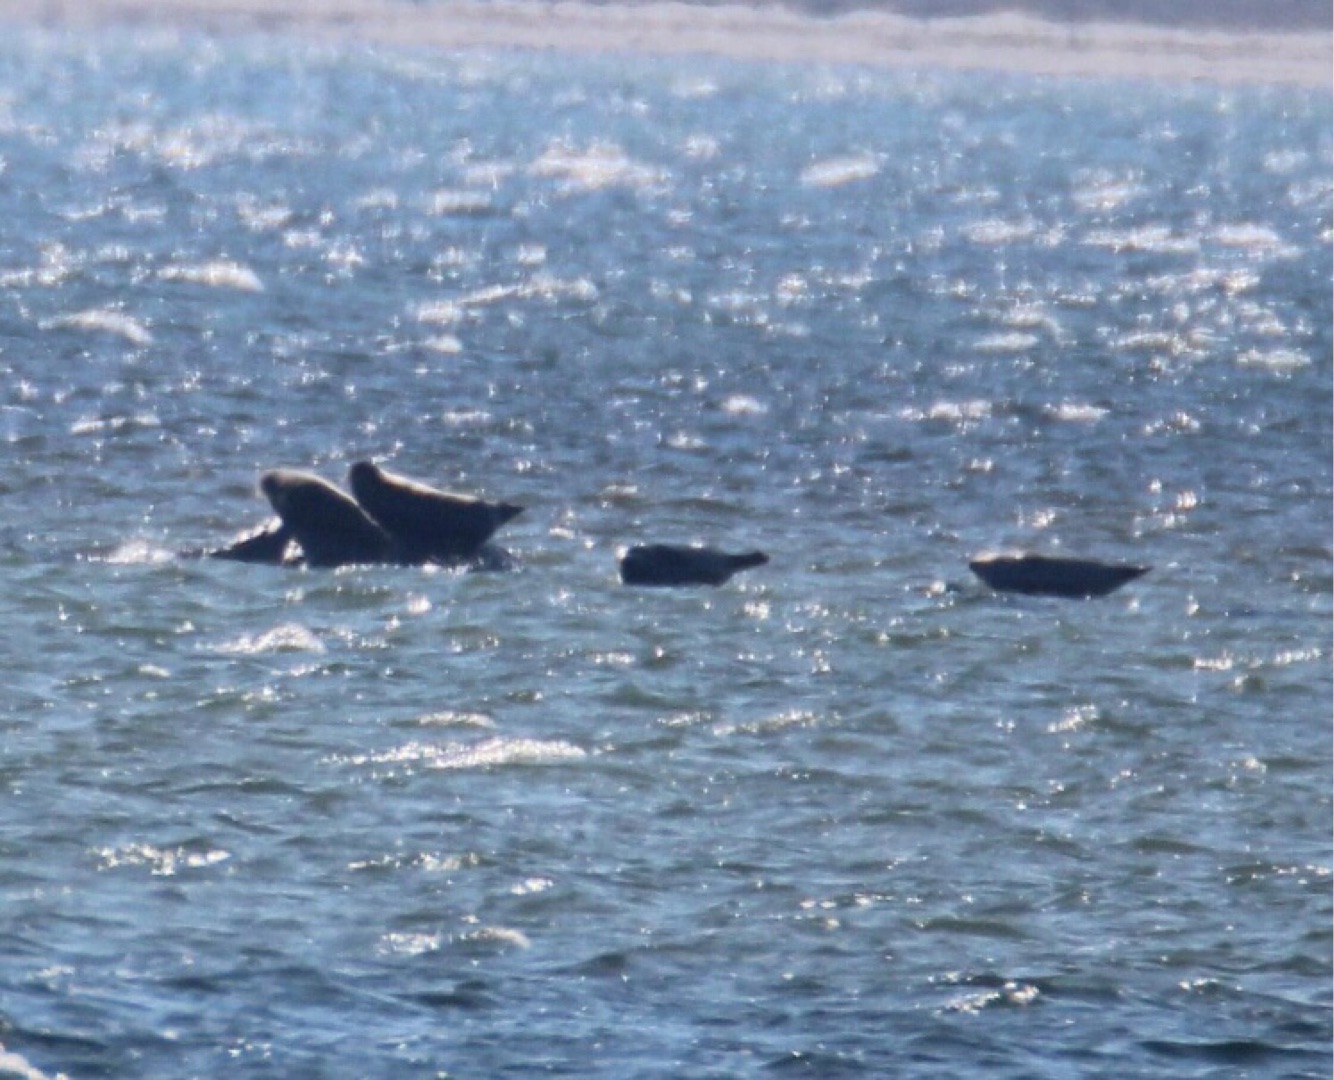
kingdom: Animalia
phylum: Chordata
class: Mammalia
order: Carnivora
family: Phocidae
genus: Phoca
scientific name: Phoca vitulina
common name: Spættet sæl
